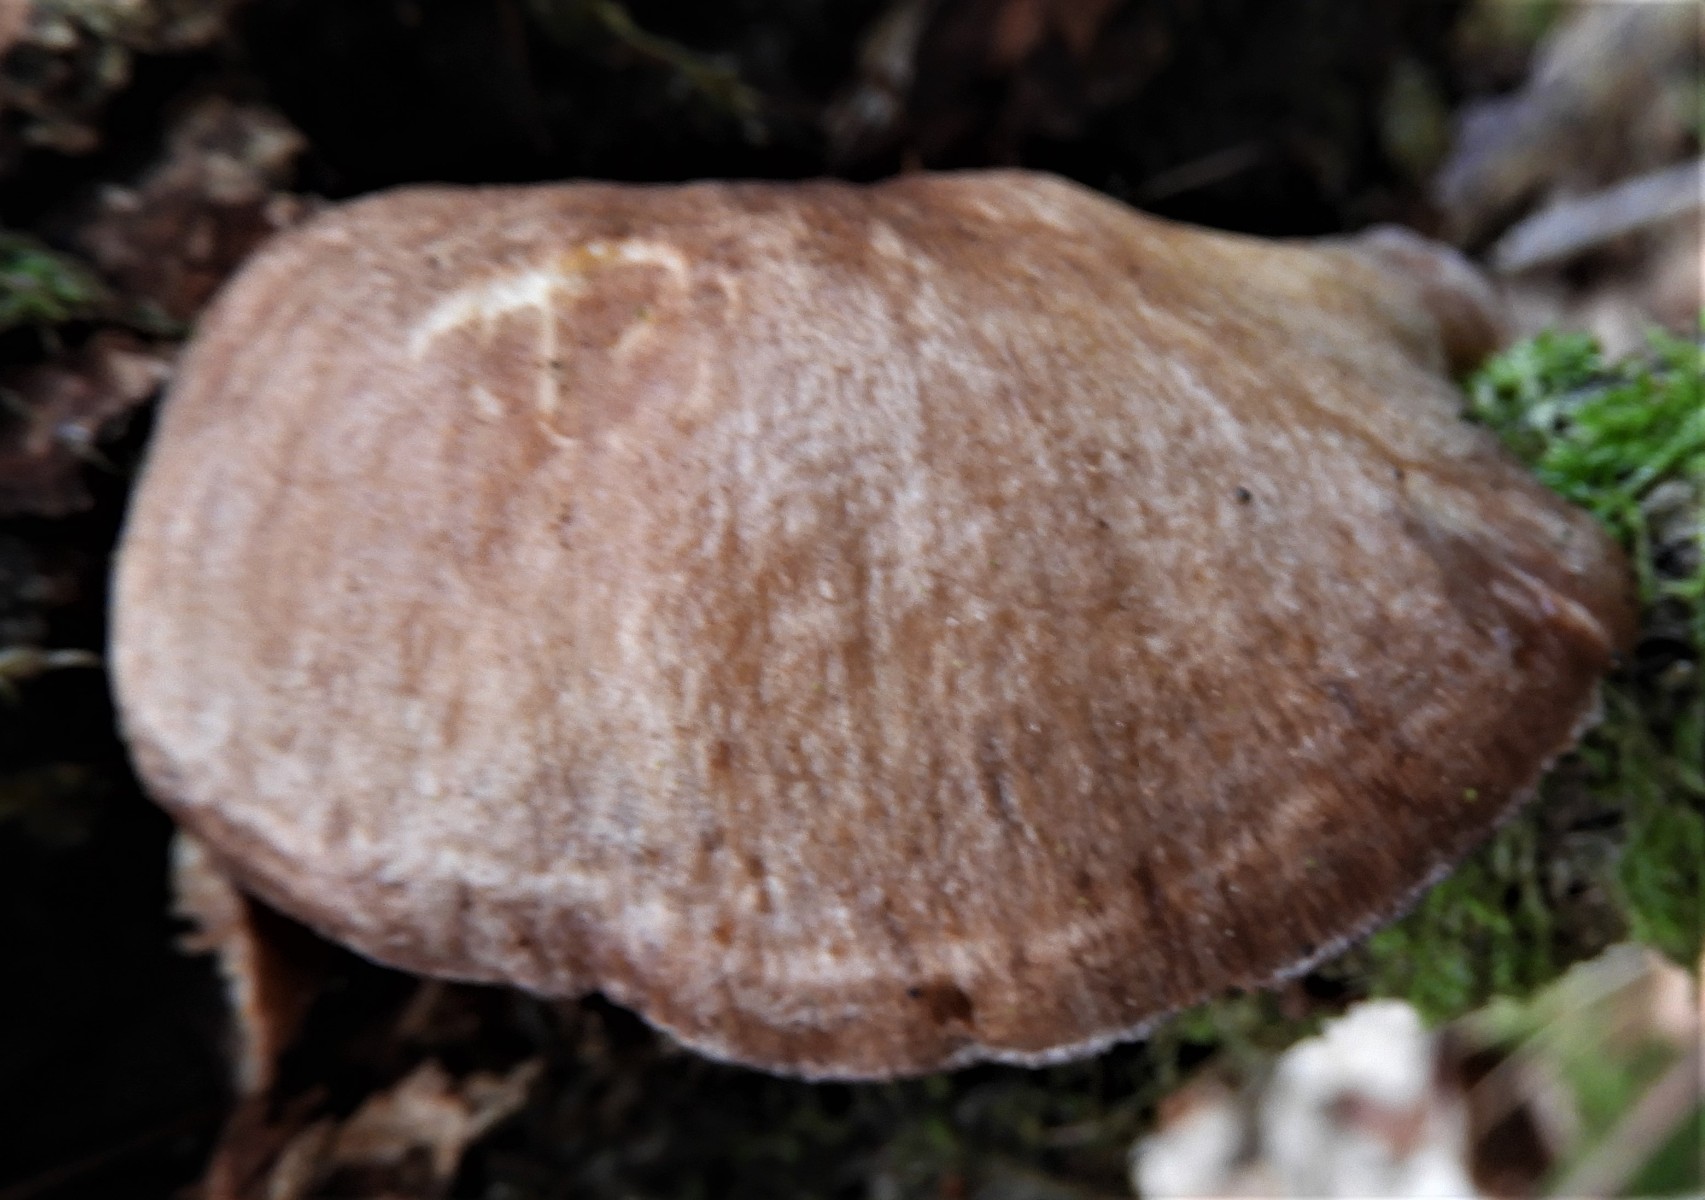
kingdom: Fungi
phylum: Basidiomycota
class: Agaricomycetes
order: Agaricales
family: Sarcomyxaceae
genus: Sarcomyxa
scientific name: Sarcomyxa serotina
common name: gummihat
